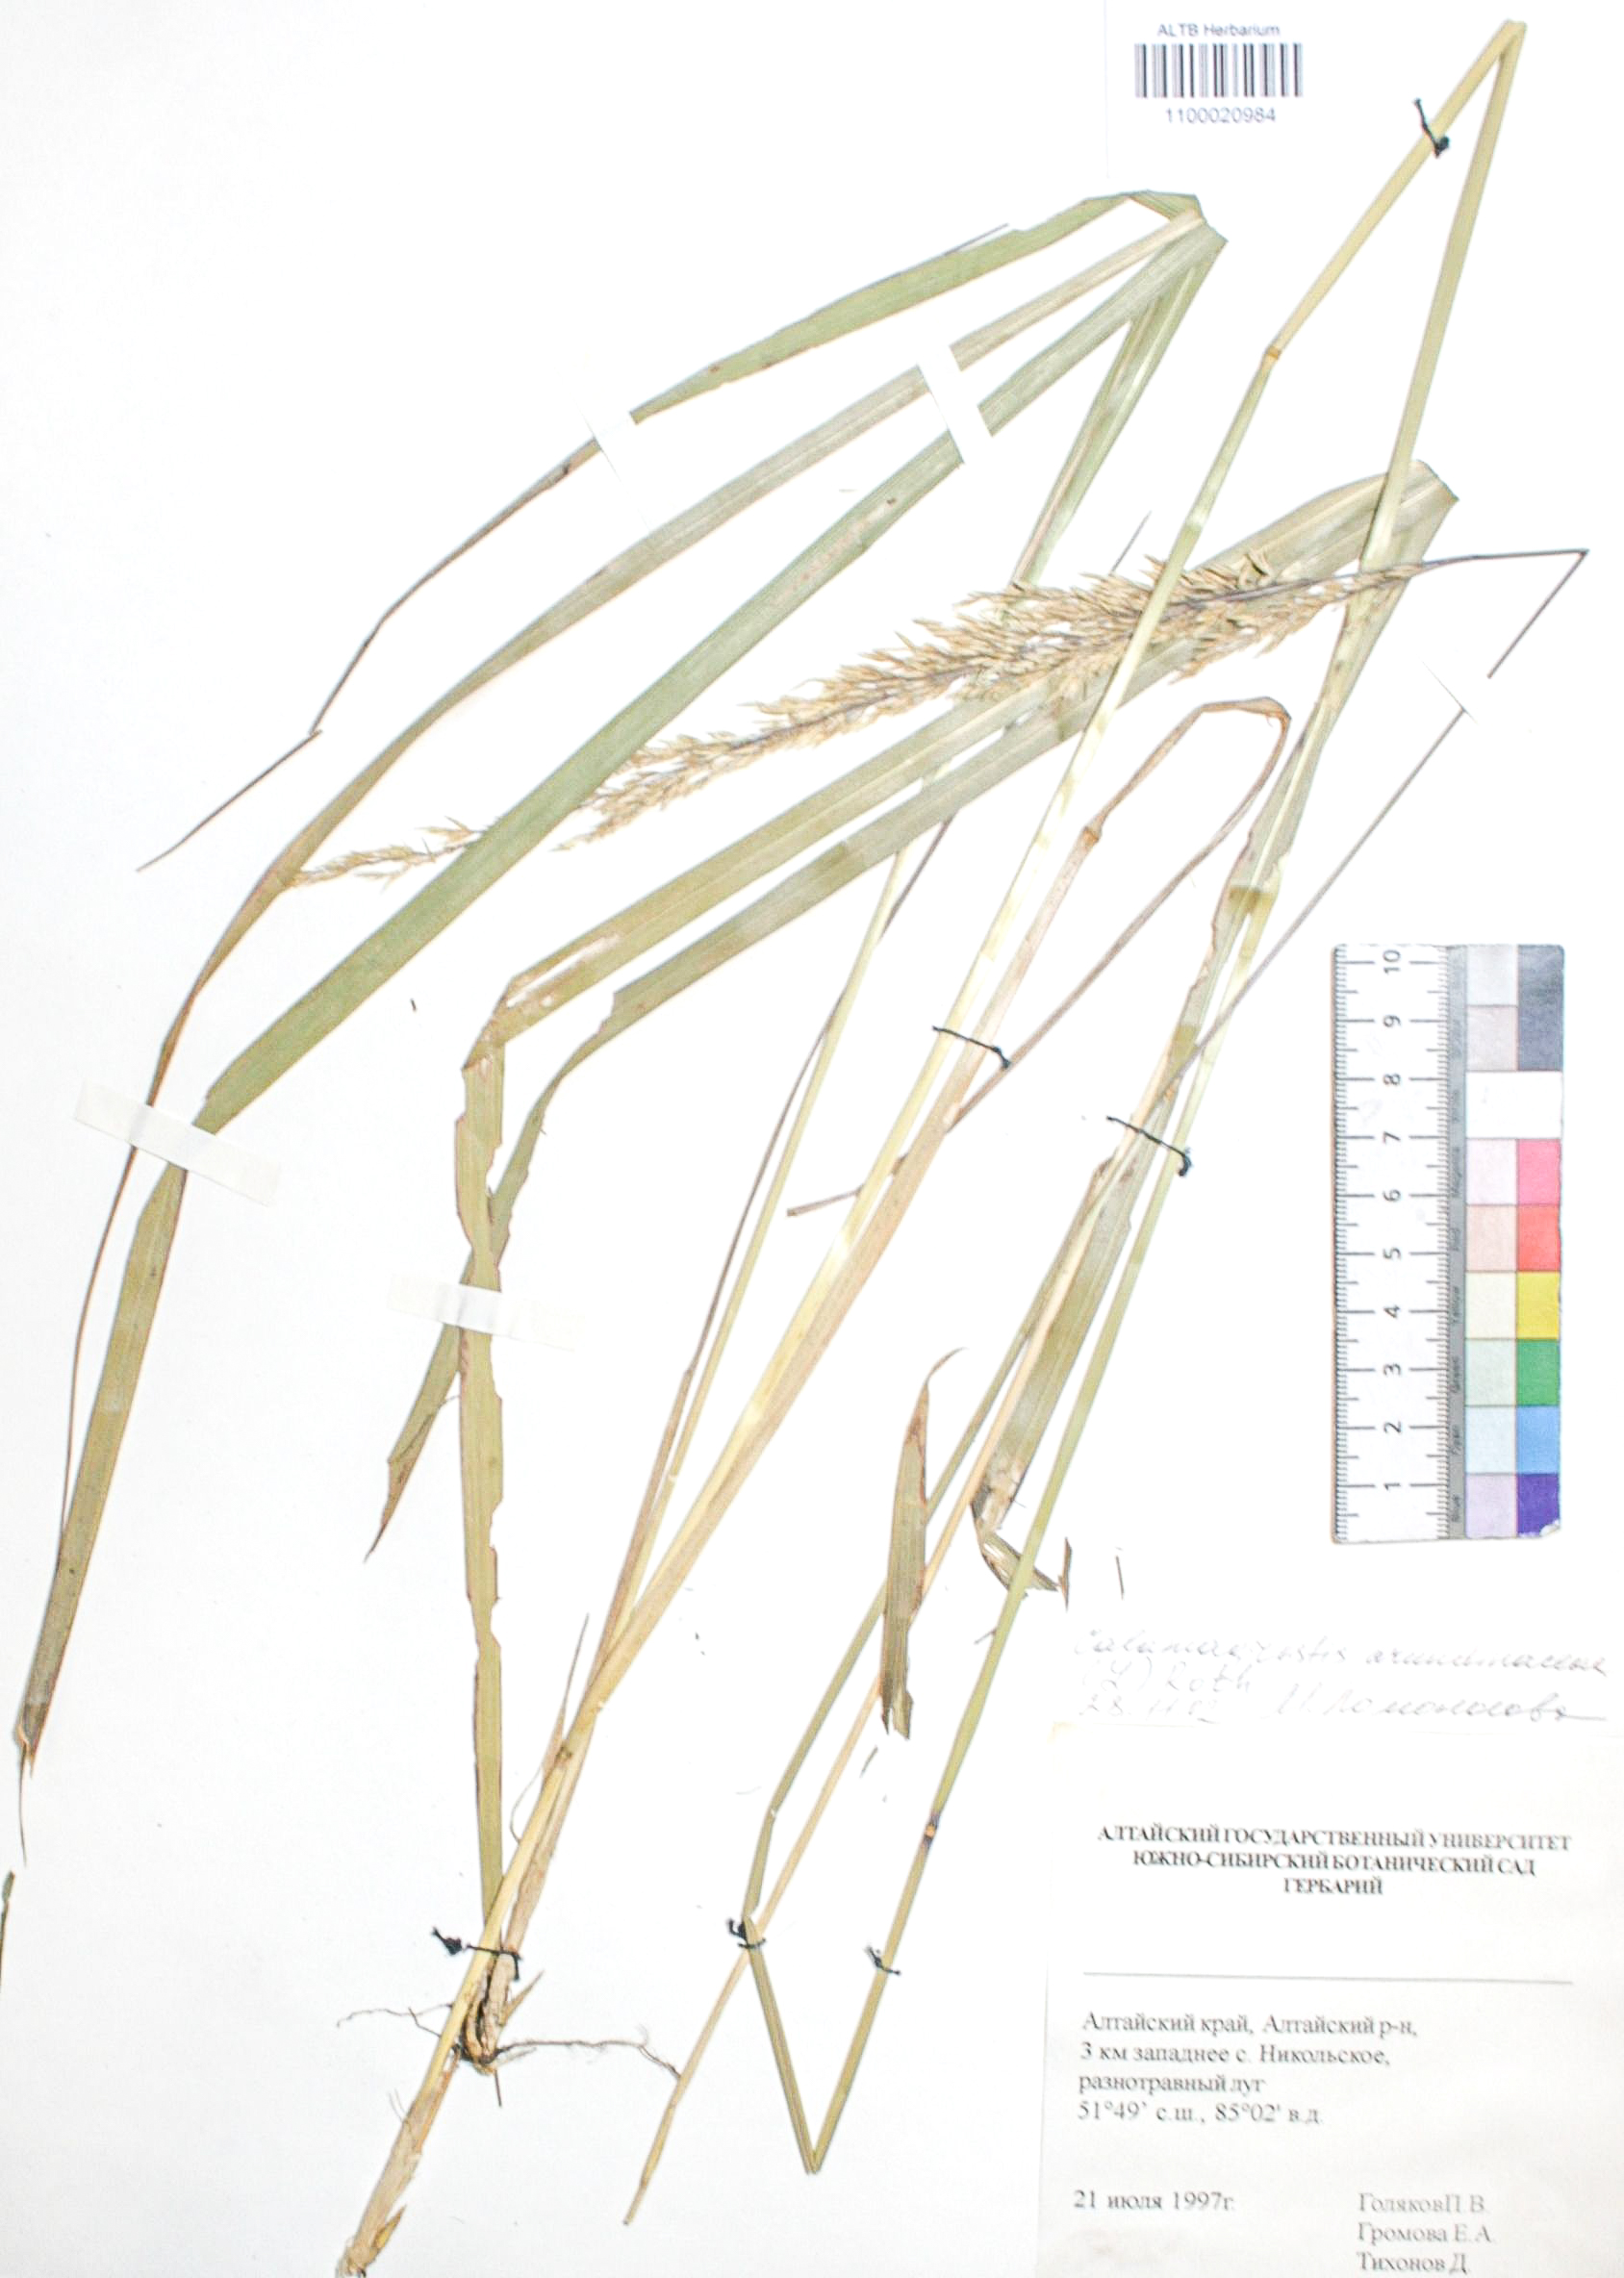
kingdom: Plantae
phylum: Tracheophyta
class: Liliopsida
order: Poales
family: Poaceae
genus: Calamagrostis
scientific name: Calamagrostis arundinacea
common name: Metskastik
